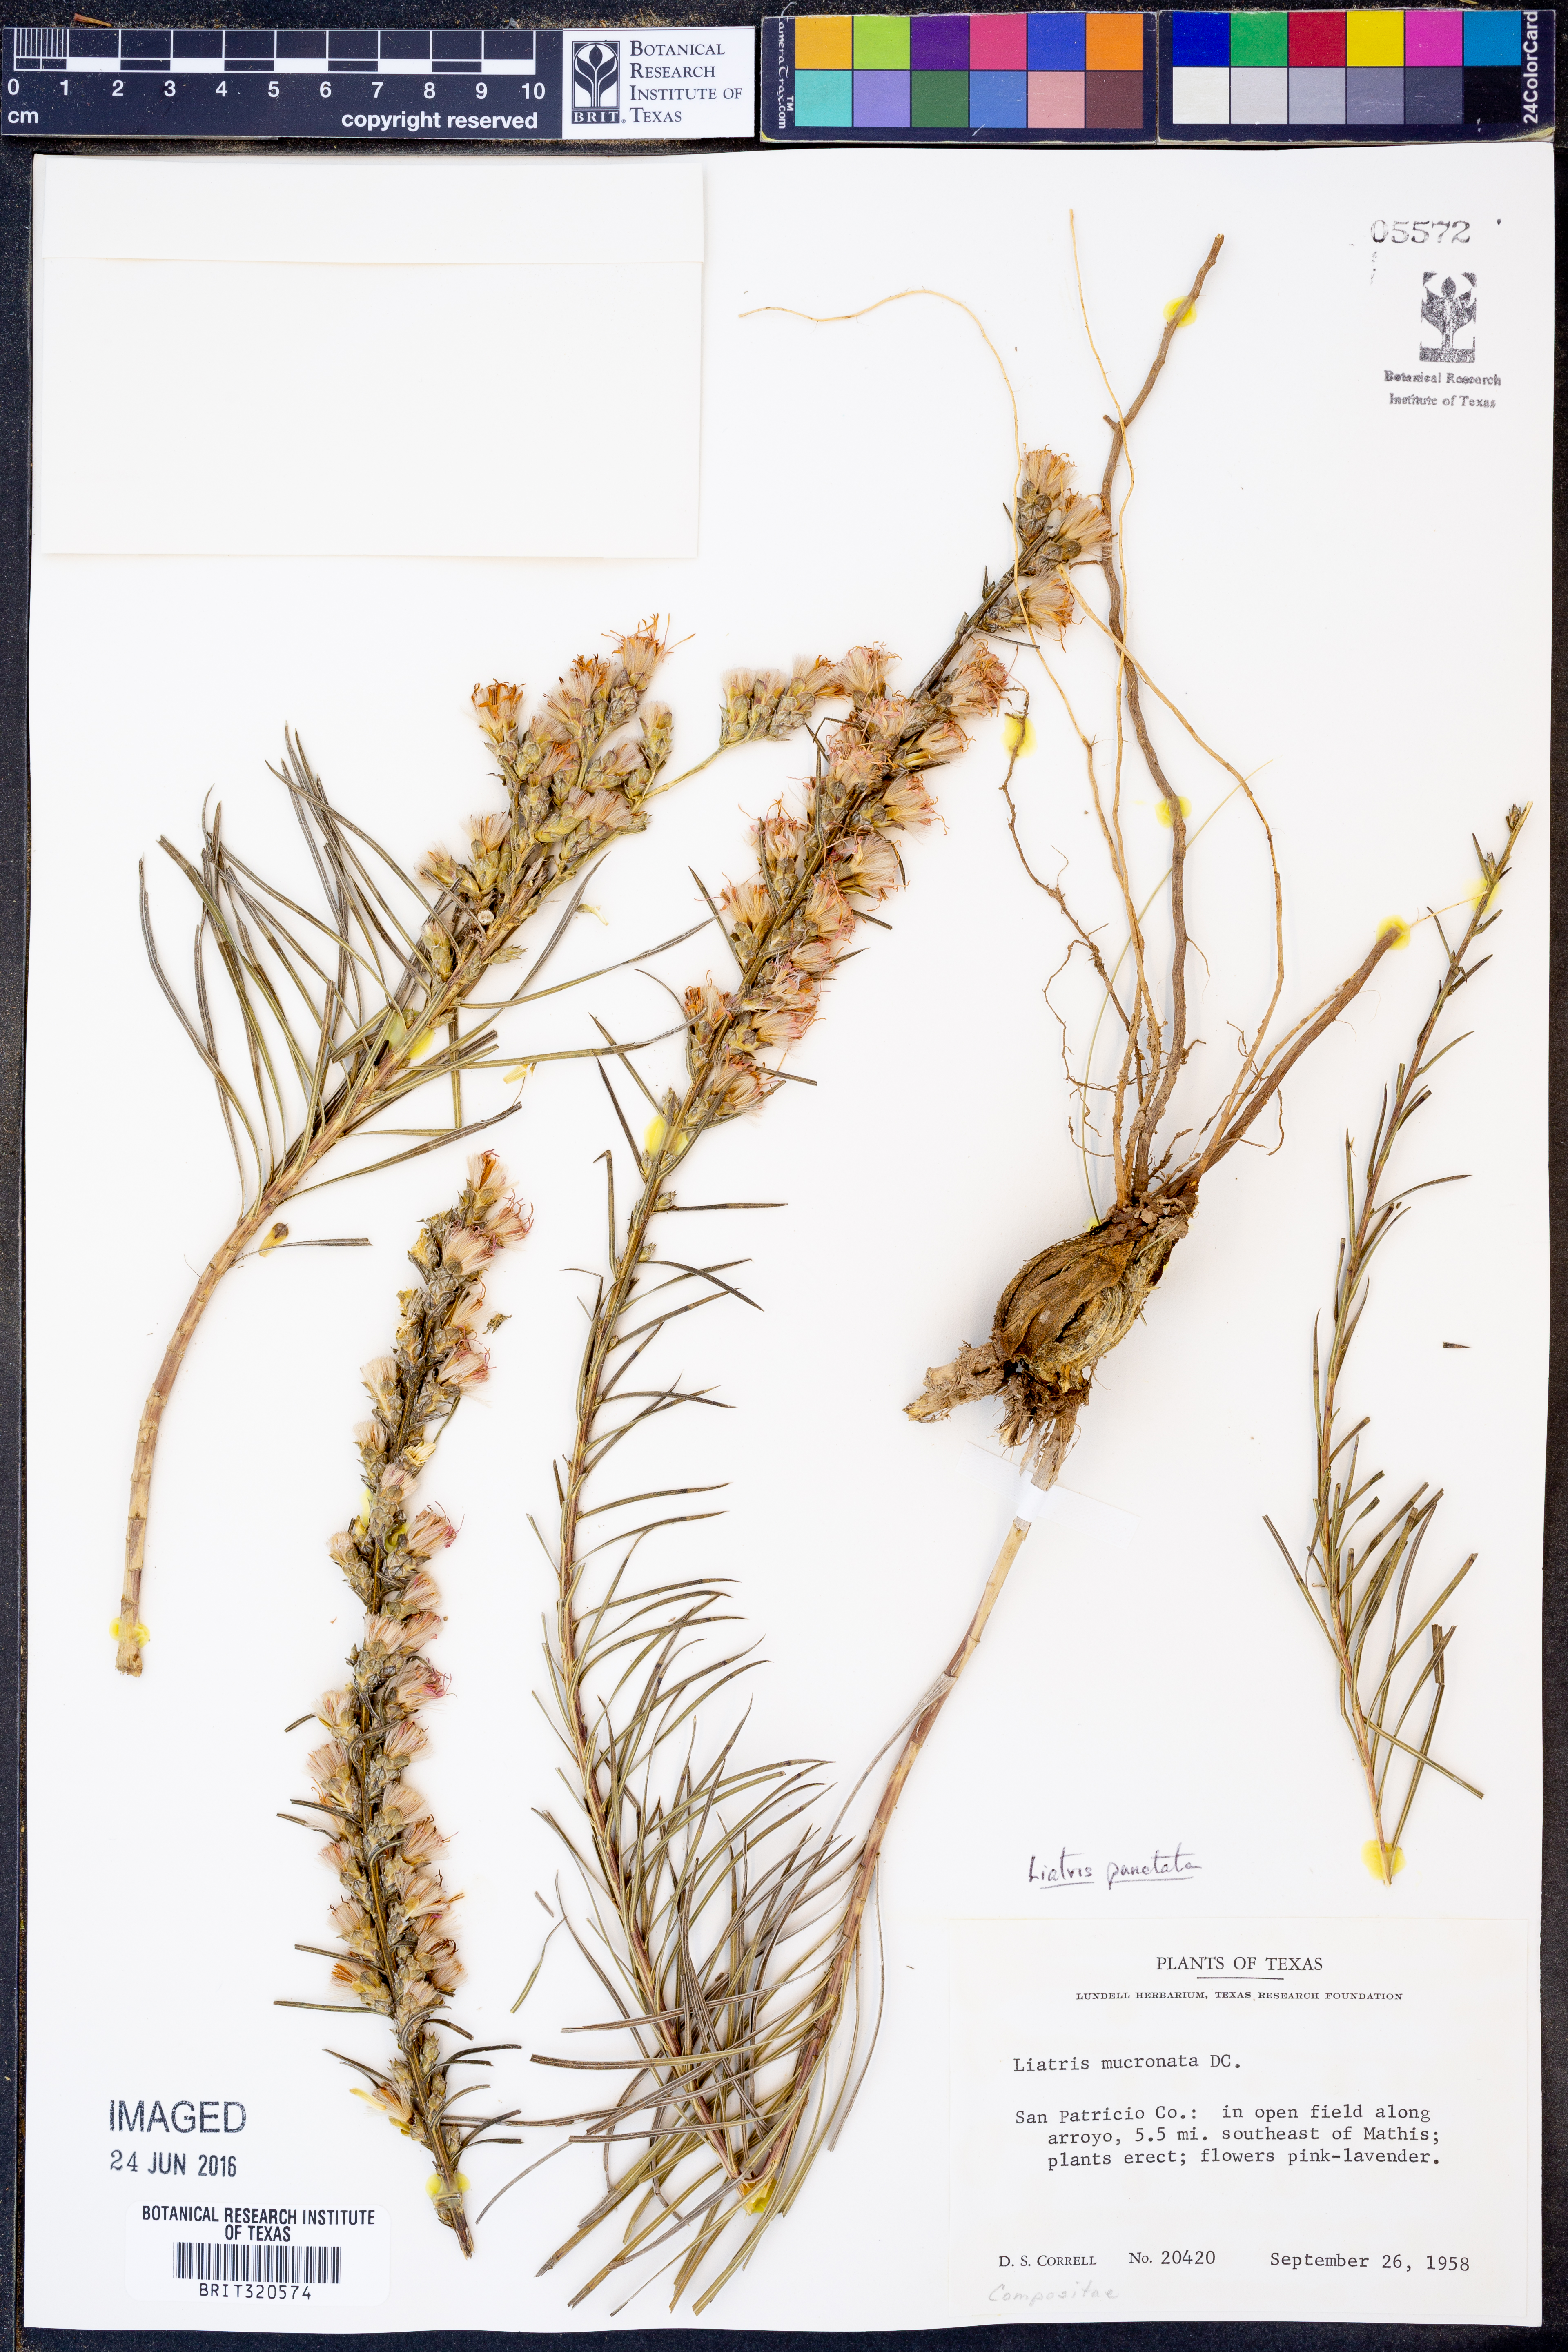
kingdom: Plantae
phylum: Tracheophyta
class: Magnoliopsida
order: Asterales
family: Asteraceae
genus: Liatris
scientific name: Liatris punctata
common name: Dotted gayfeather
